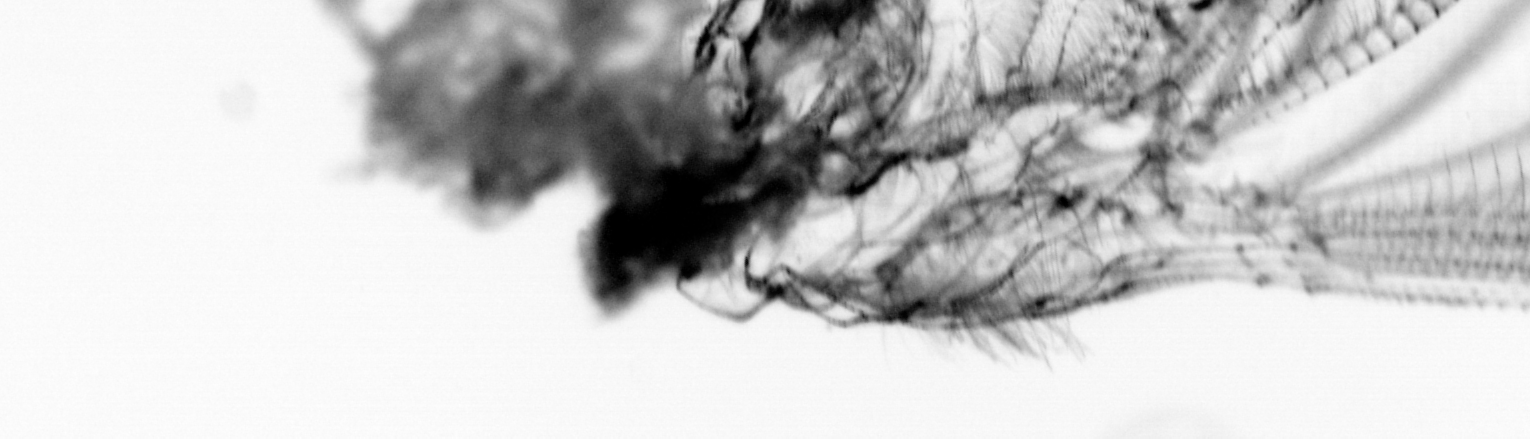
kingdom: Animalia
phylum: Arthropoda
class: Maxillopoda
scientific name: Maxillopoda
